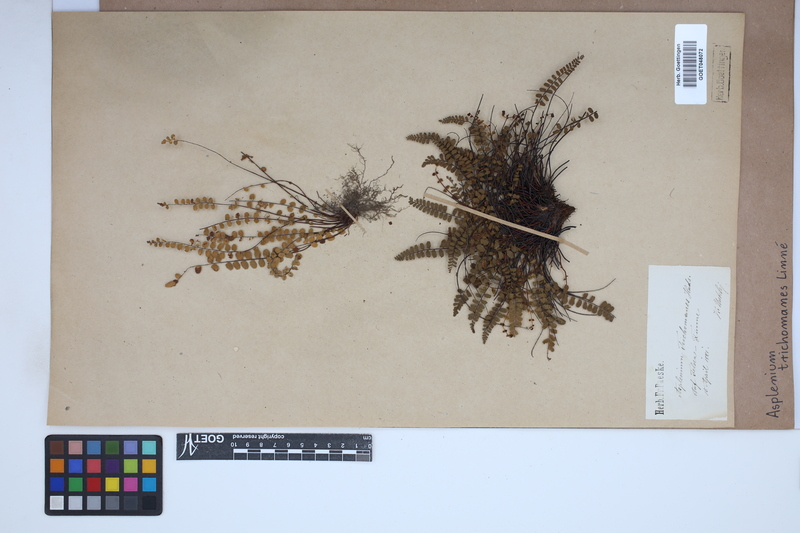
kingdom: Plantae
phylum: Tracheophyta
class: Polypodiopsida
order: Polypodiales
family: Aspleniaceae
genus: Asplenium
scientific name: Asplenium trichomanes
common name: Maidenhair spleenwort
